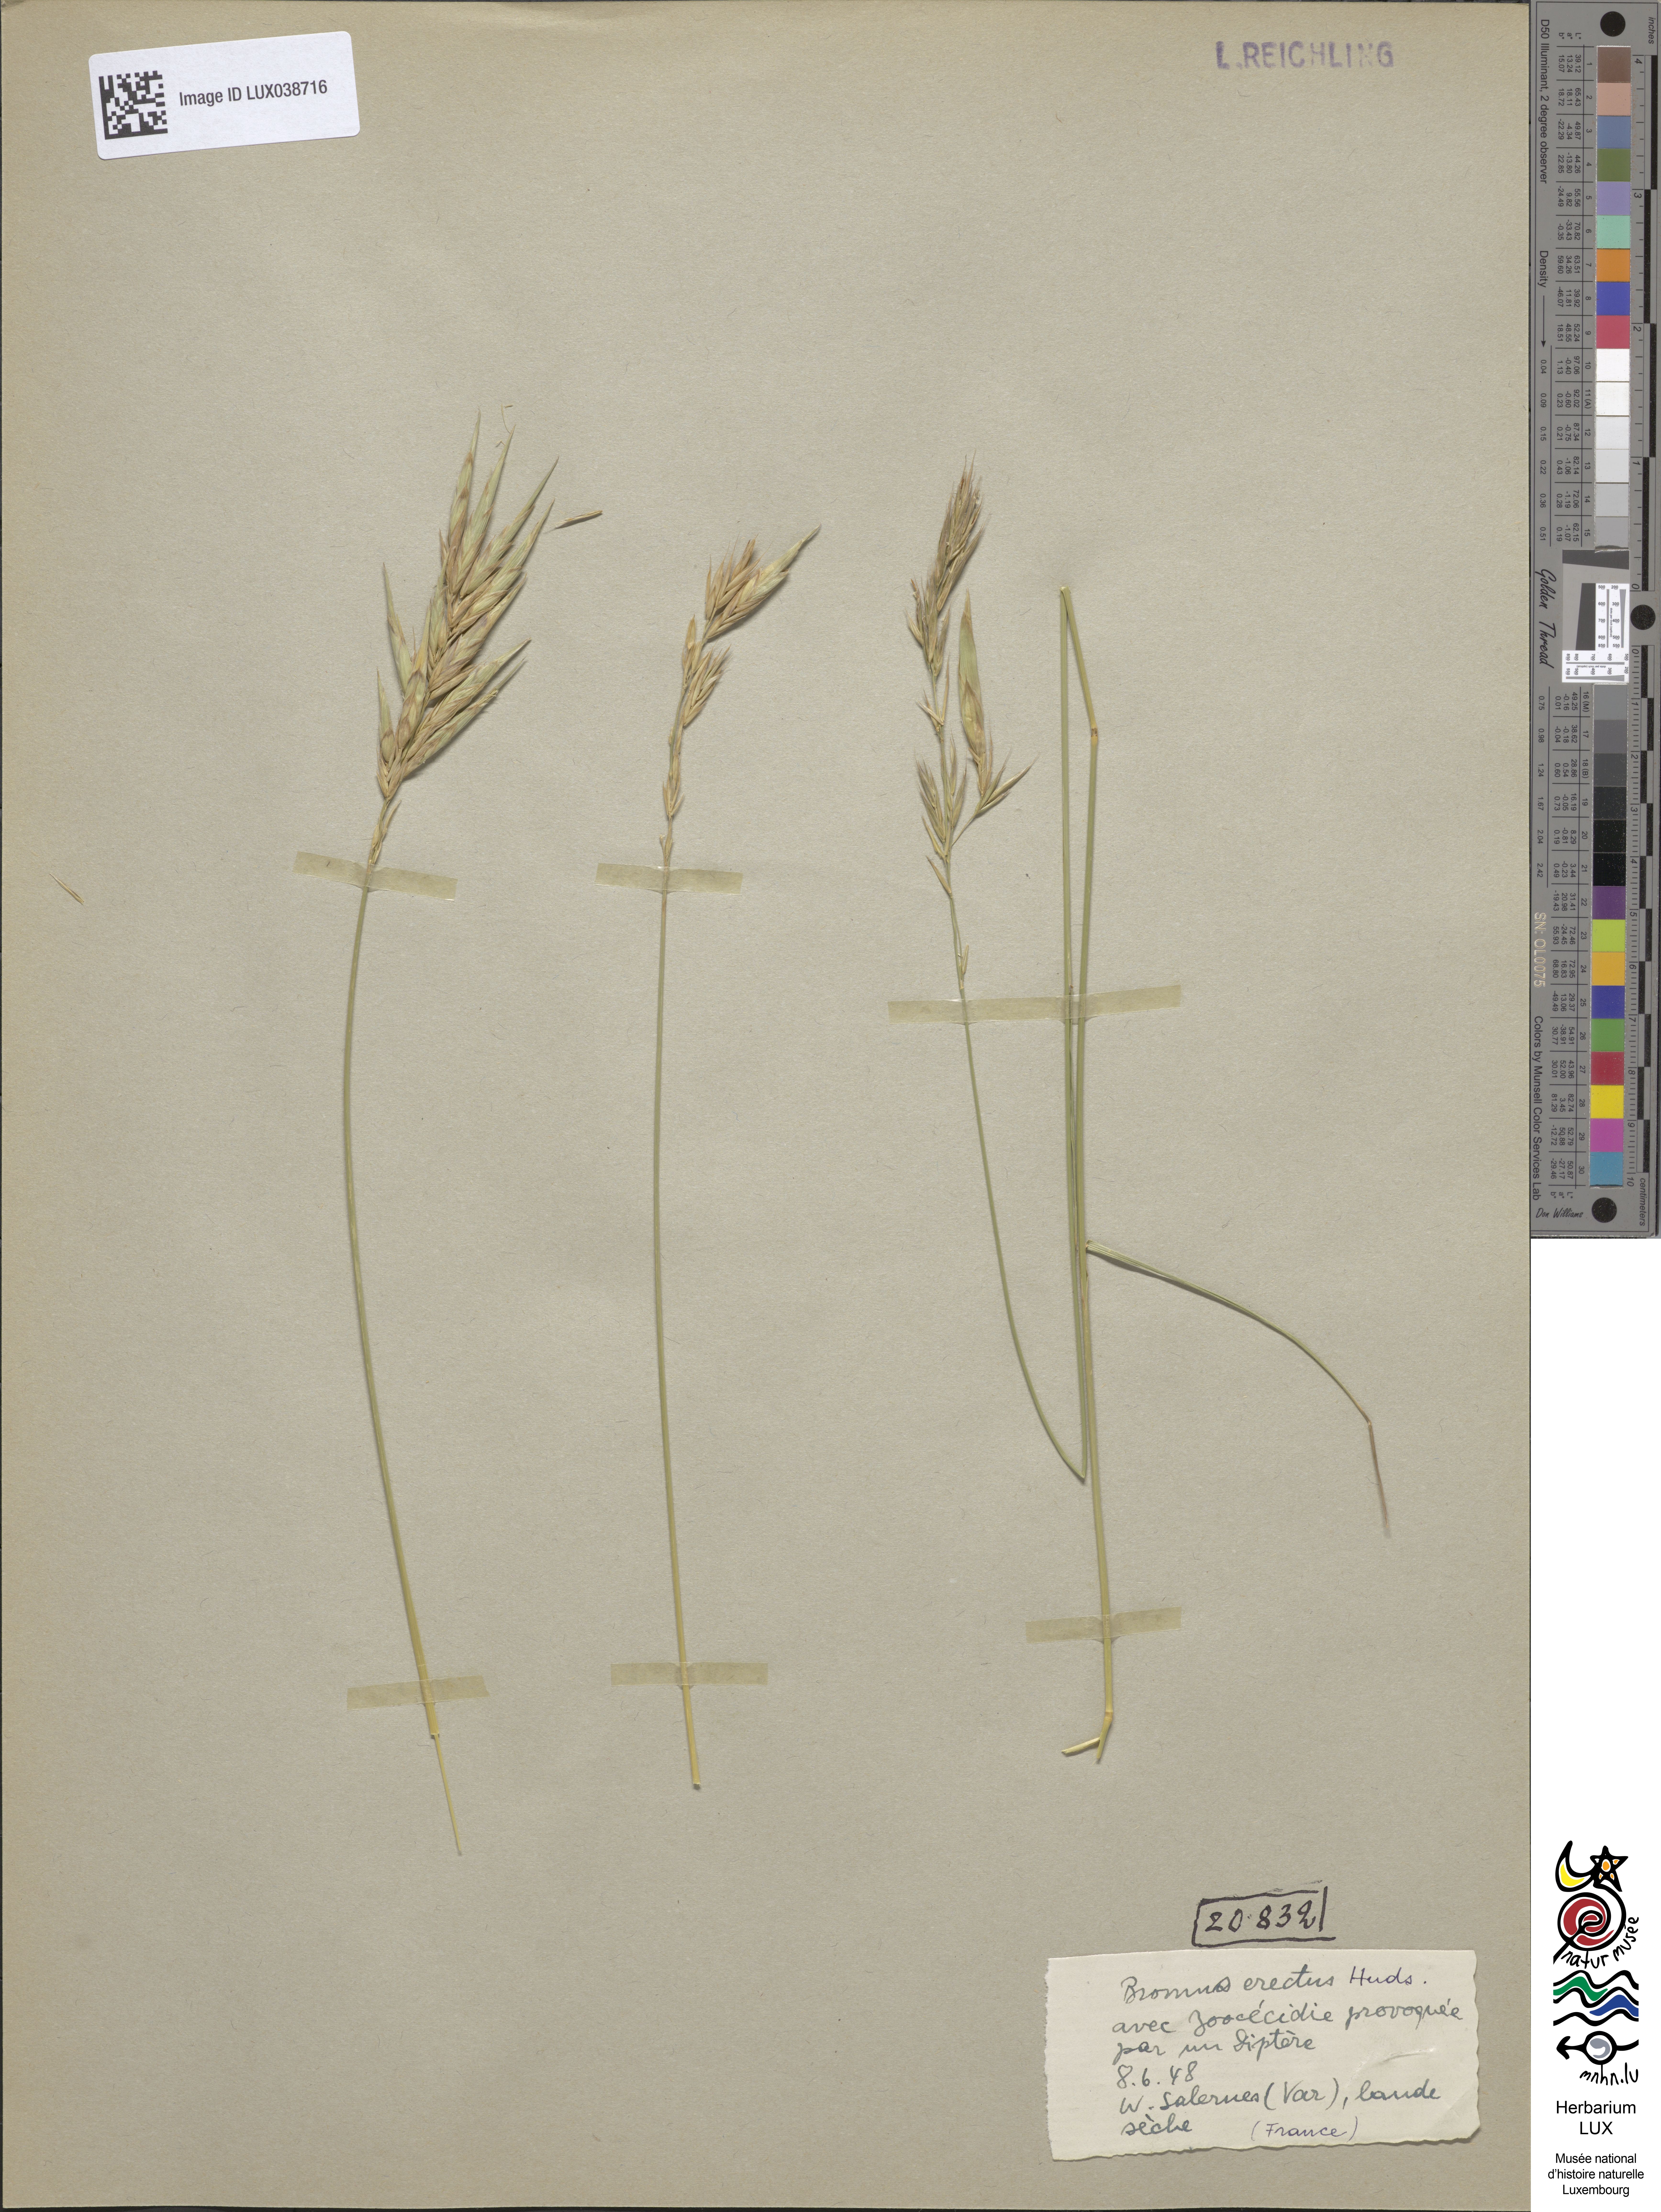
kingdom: Plantae
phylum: Tracheophyta
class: Liliopsida
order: Poales
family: Poaceae
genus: Bromus
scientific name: Bromus erectus
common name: Erect brome
